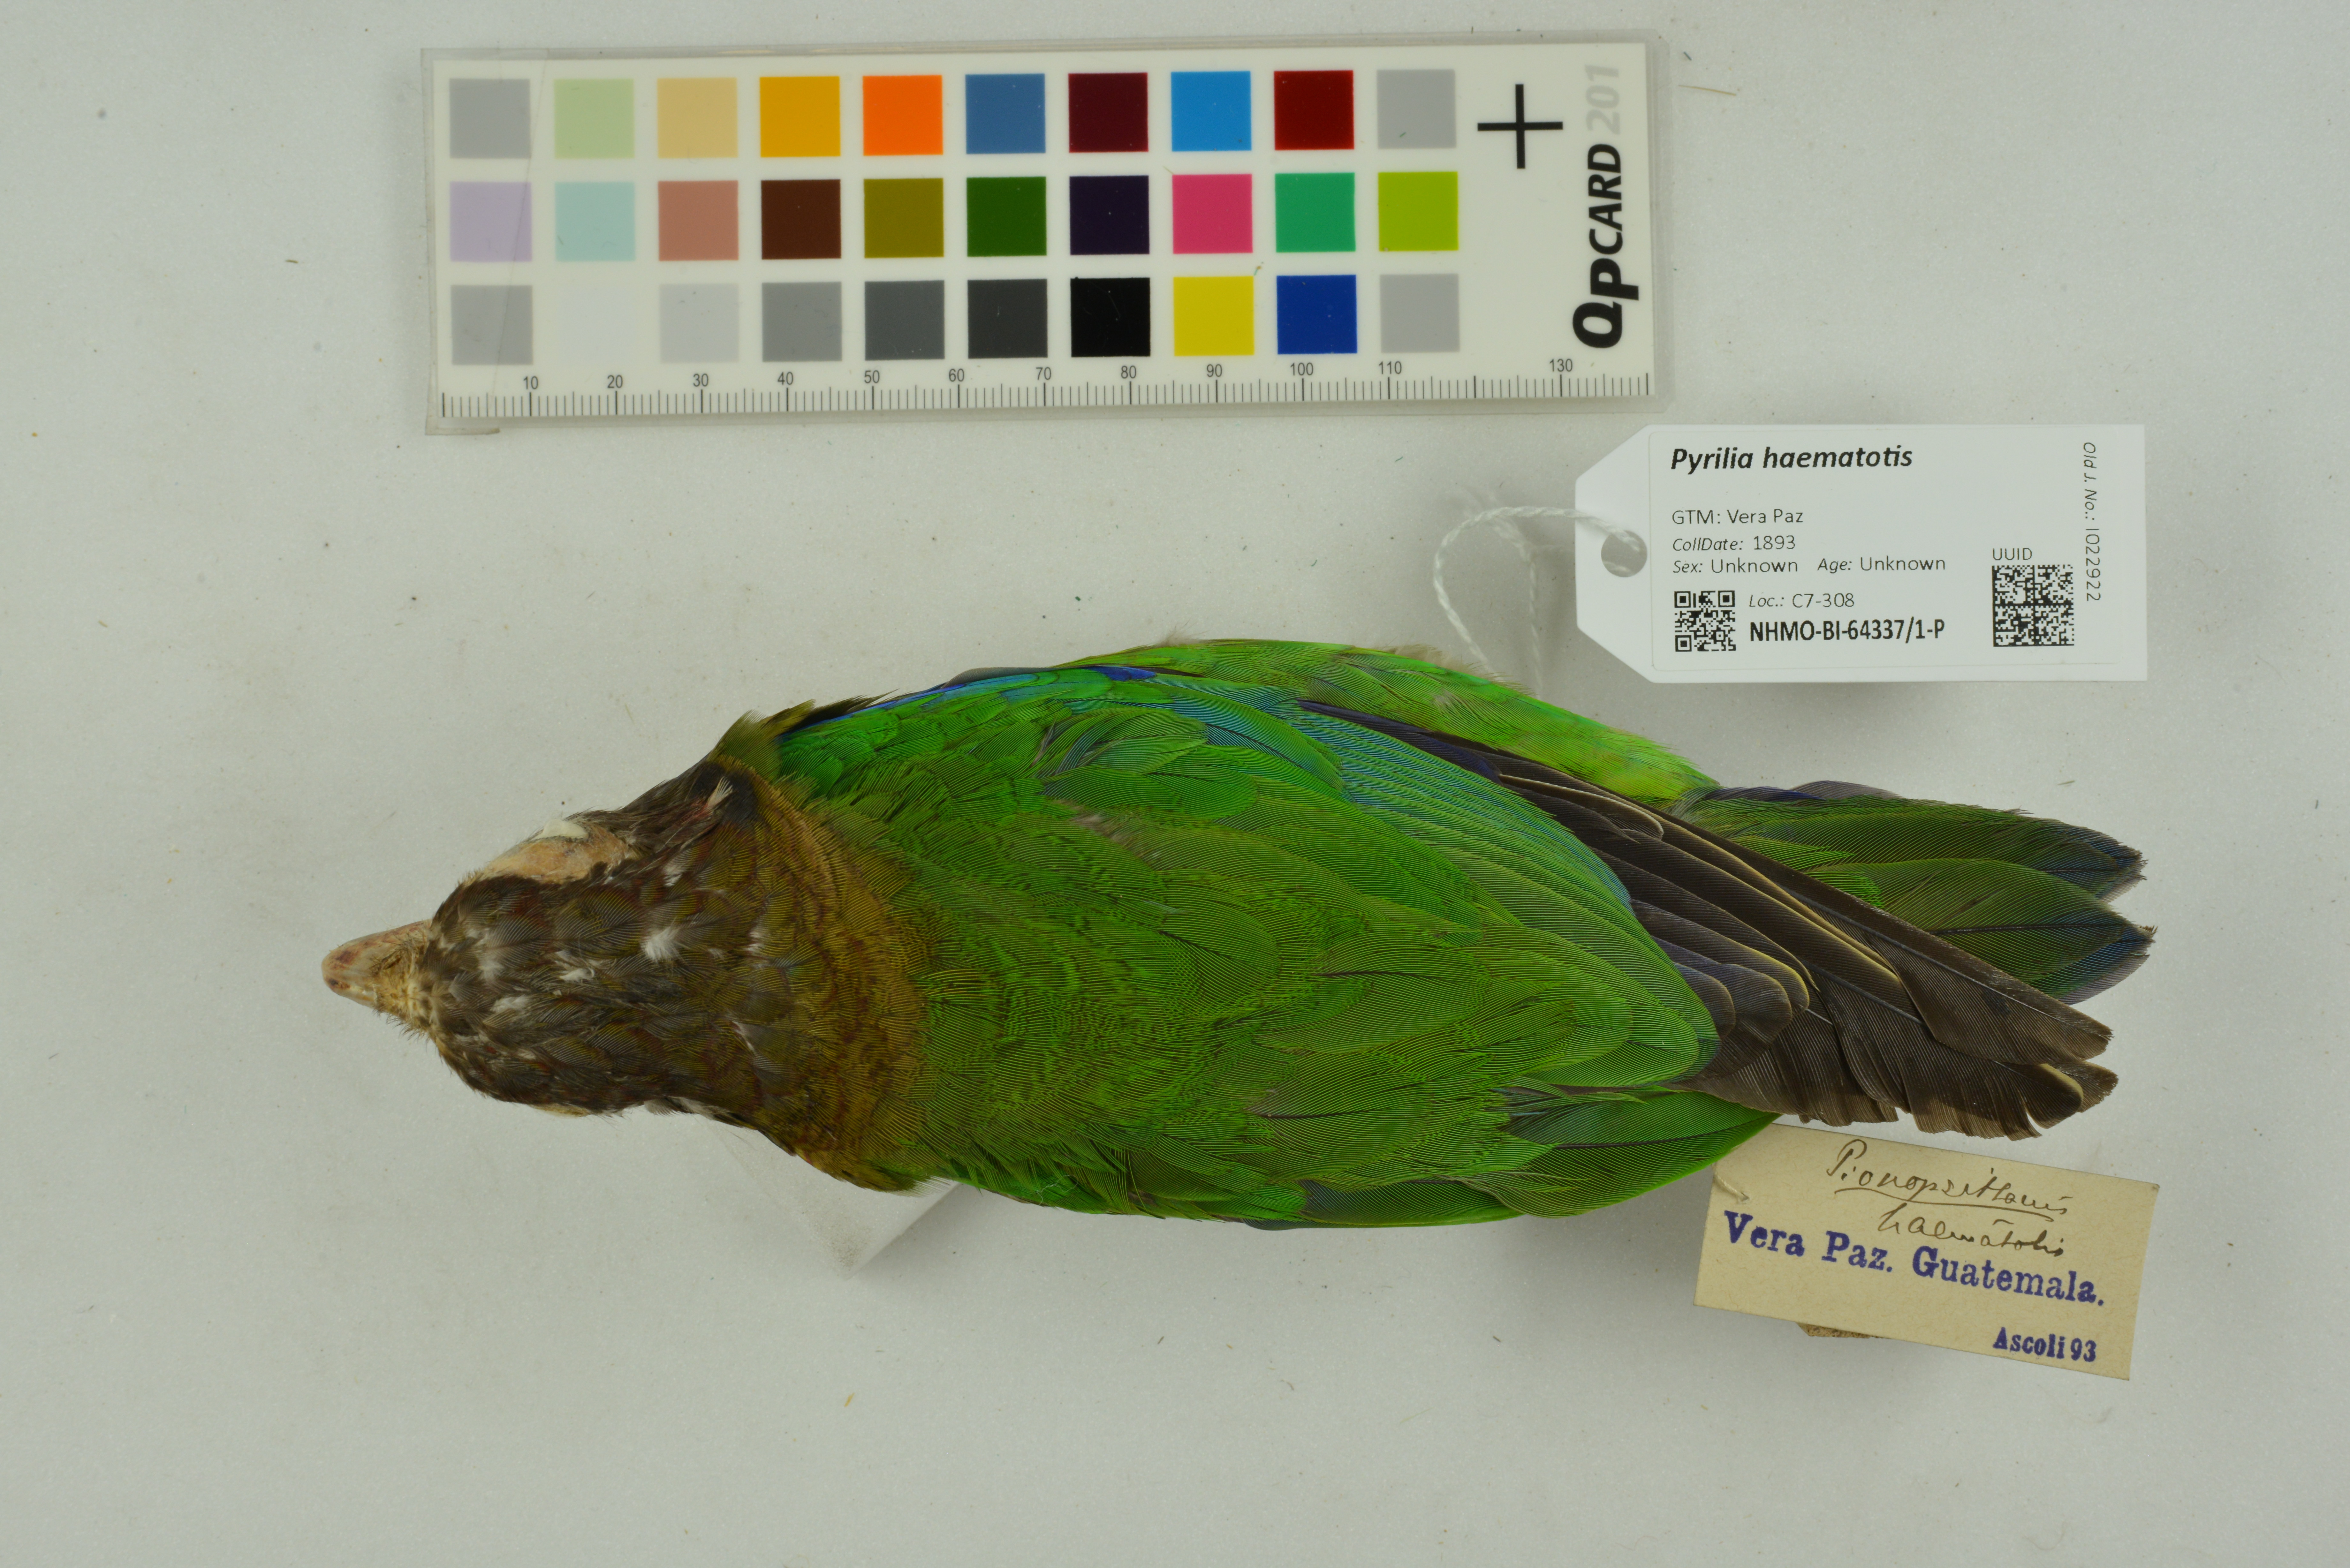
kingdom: Animalia
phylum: Chordata
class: Aves
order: Psittaciformes
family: Psittacidae
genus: Pionopsitta
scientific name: Pionopsitta haematotis
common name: Brown-hooded parrot
